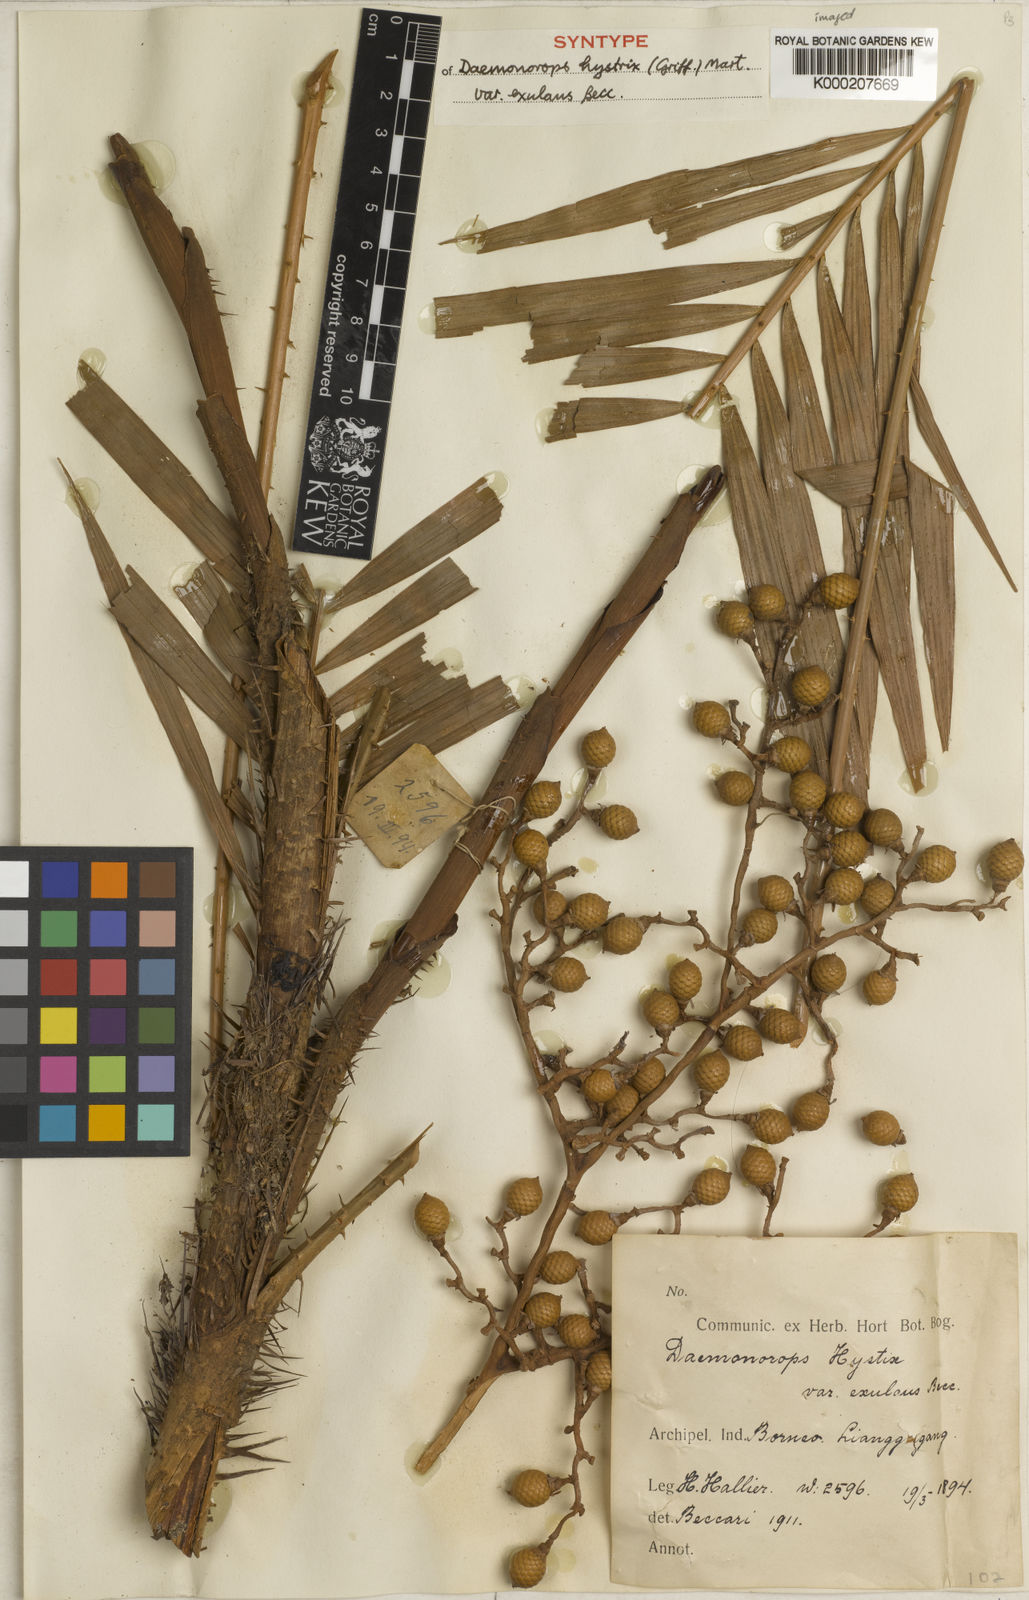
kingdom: Plantae
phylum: Tracheophyta
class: Liliopsida
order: Arecales
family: Arecaceae
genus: Calamus
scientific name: Calamus hirsutus
